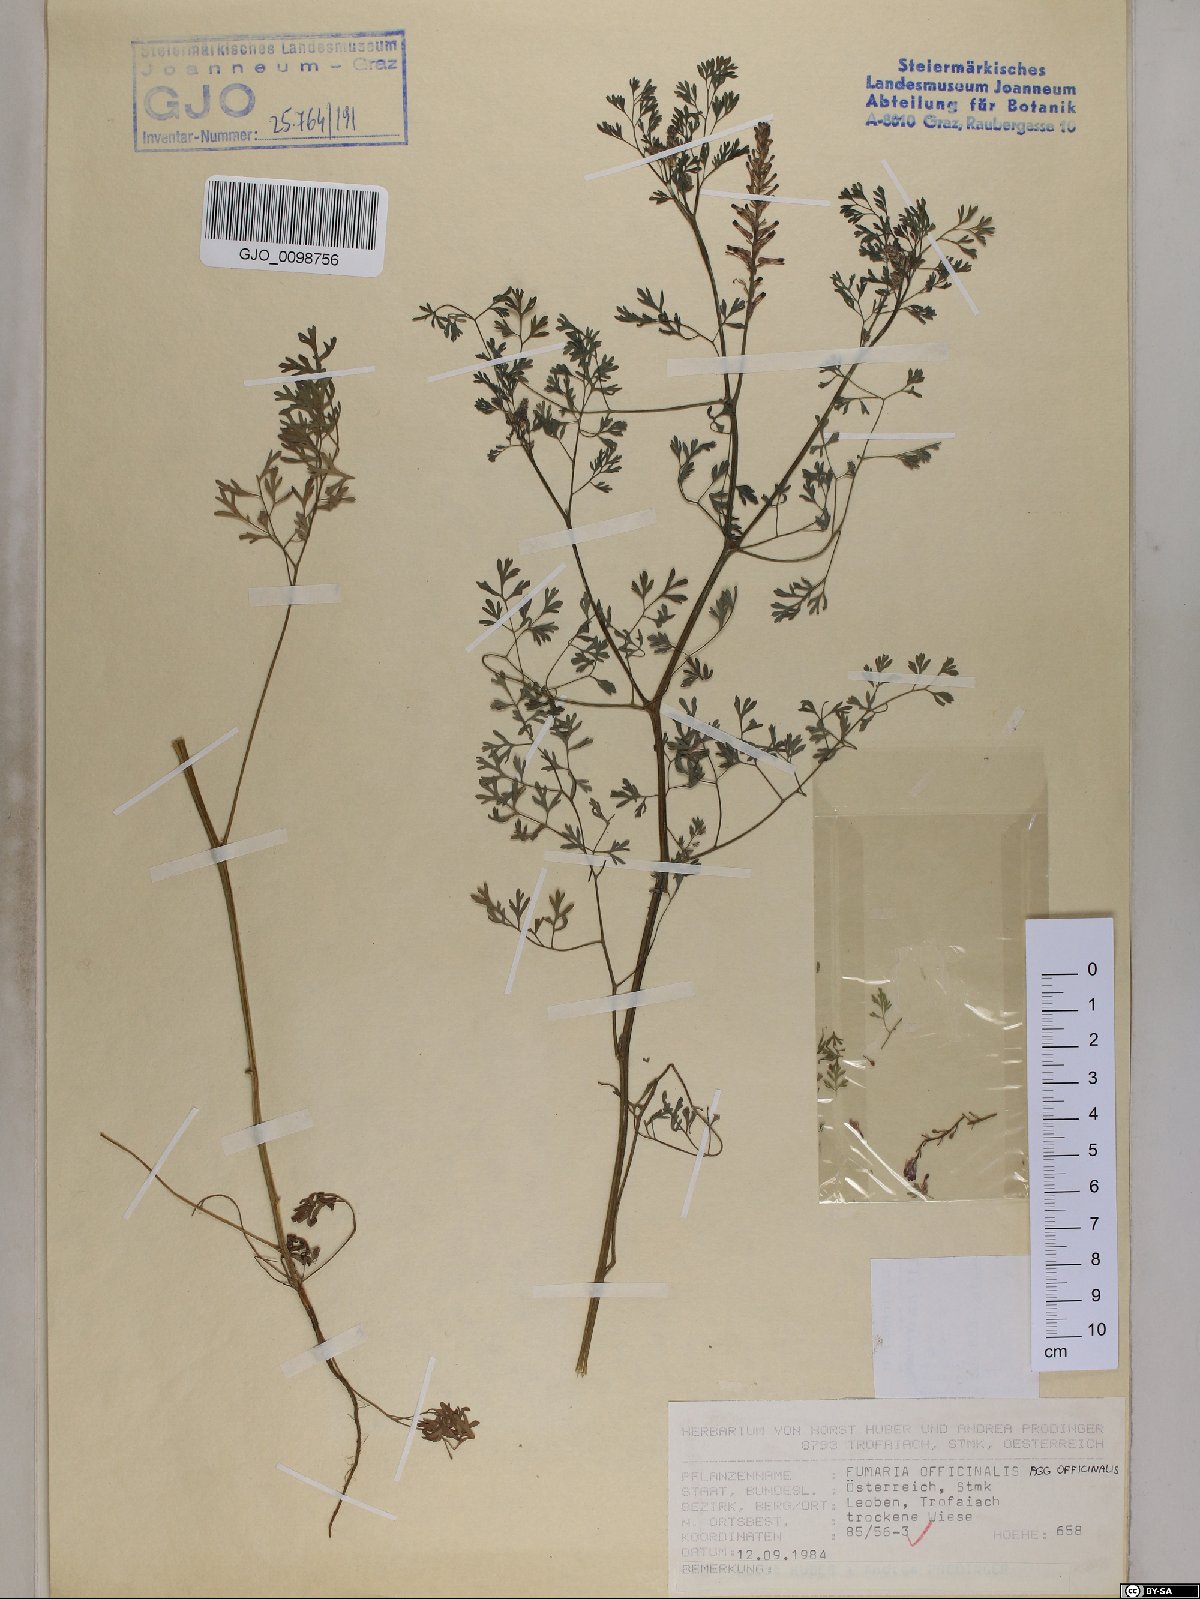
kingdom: Plantae
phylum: Tracheophyta
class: Magnoliopsida
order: Ranunculales
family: Papaveraceae
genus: Fumaria
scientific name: Fumaria officinalis
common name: Common fumitory
